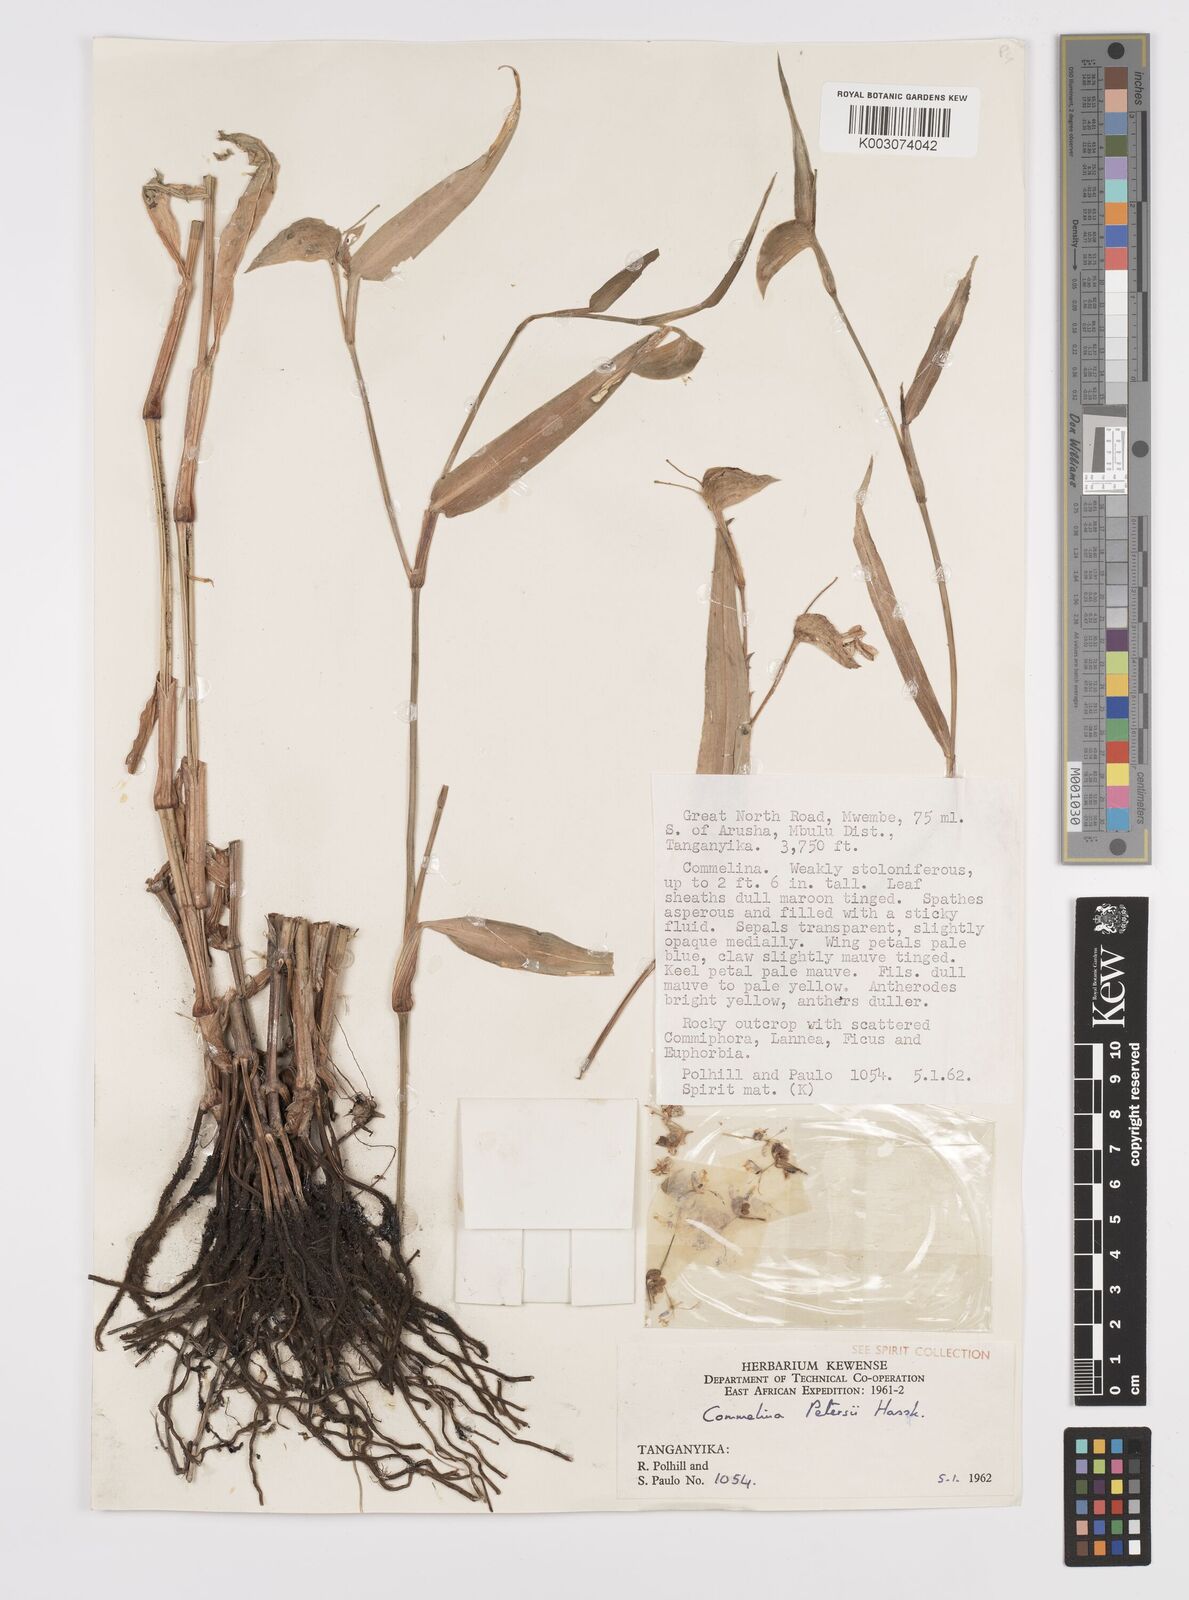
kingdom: Plantae
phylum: Tracheophyta
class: Liliopsida
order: Commelinales
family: Commelinaceae
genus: Commelina
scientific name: Commelina petersii
